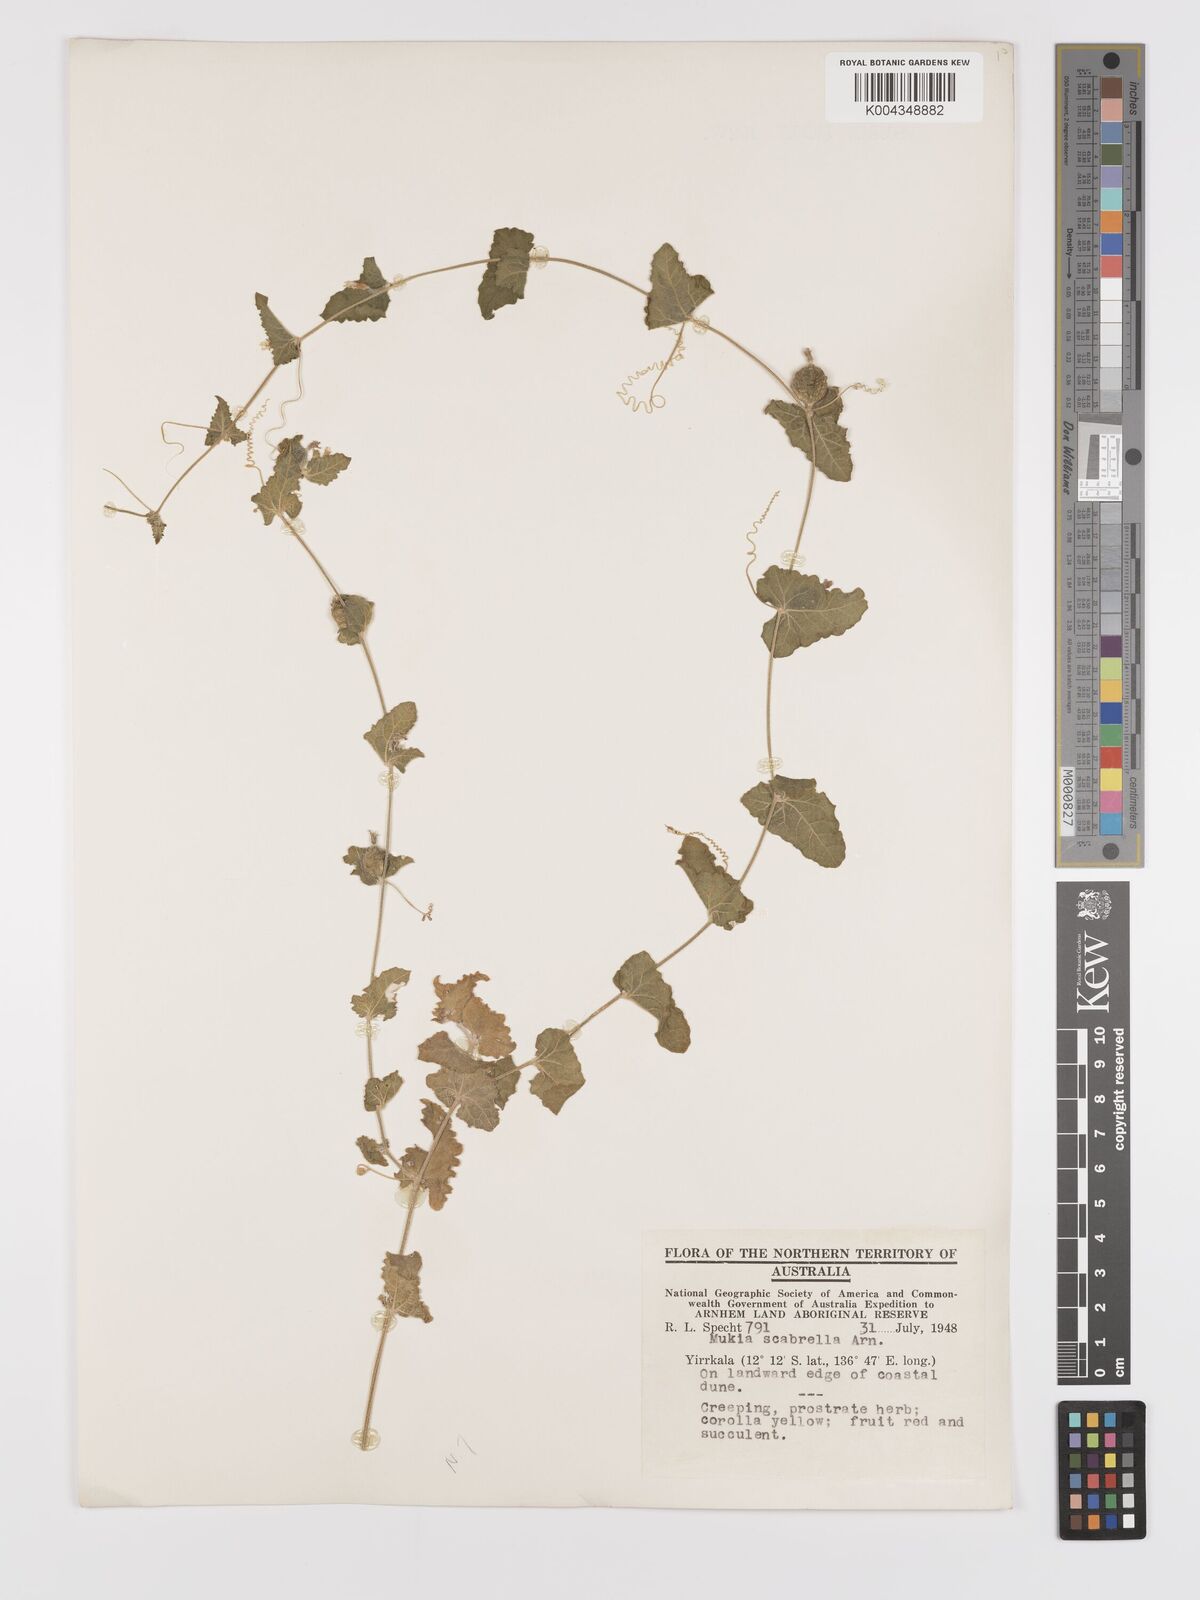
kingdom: Animalia
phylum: Arthropoda
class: Insecta
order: Lepidoptera
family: Crambidae
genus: Mukia
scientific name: Mukia
